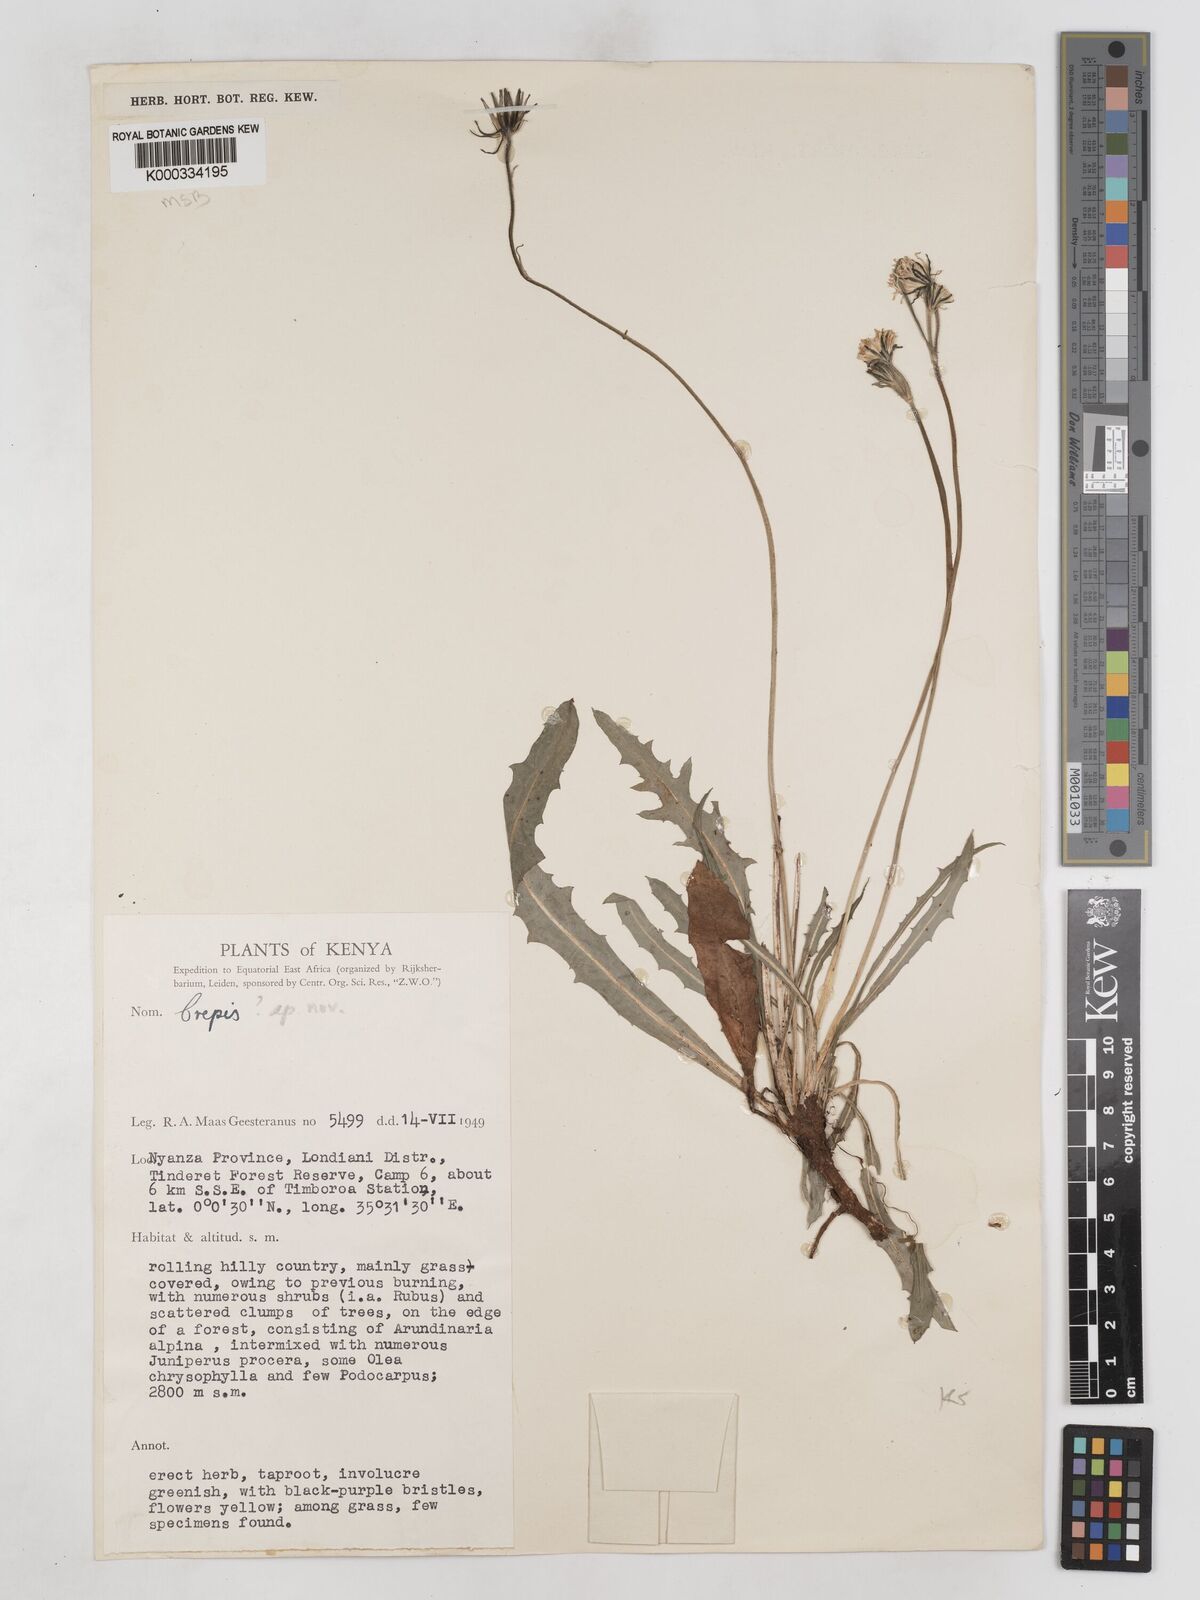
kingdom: Plantae
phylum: Tracheophyta
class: Magnoliopsida
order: Asterales
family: Asteraceae
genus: Crepis
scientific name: Crepis carbonaria
